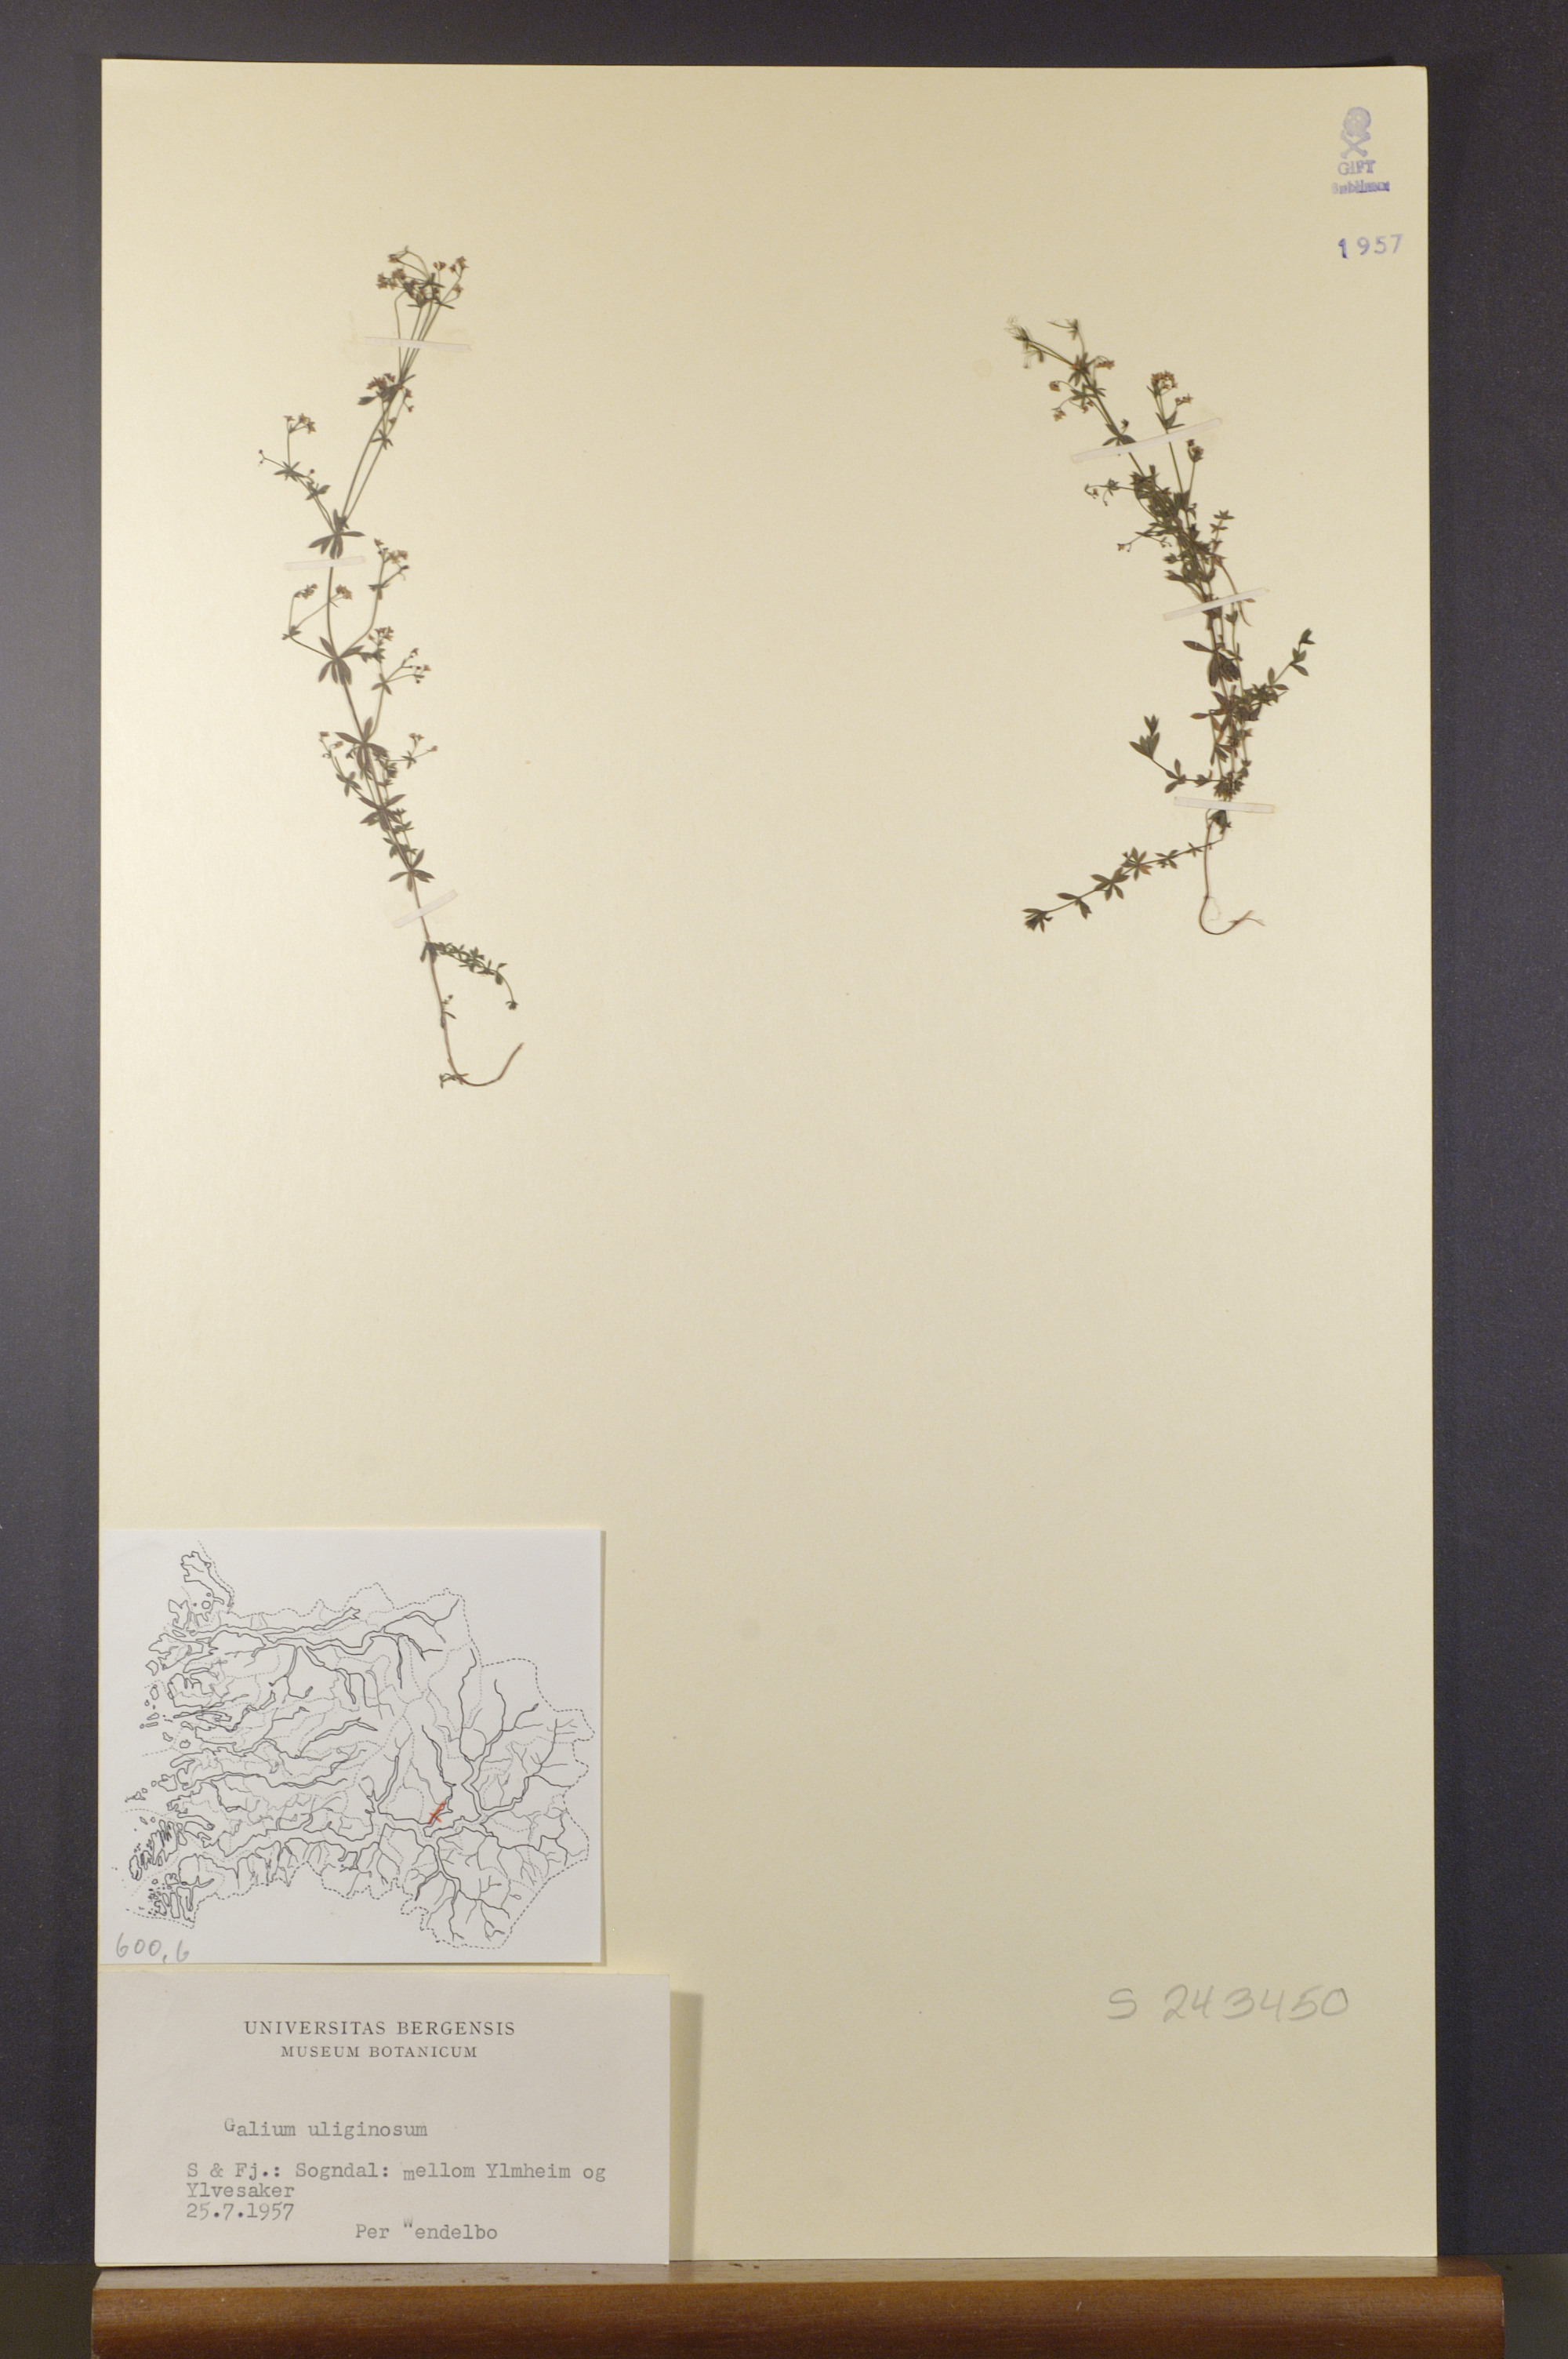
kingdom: Plantae
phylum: Tracheophyta
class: Magnoliopsida
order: Gentianales
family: Rubiaceae
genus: Galium
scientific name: Galium uliginosum
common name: Fen bedstraw
